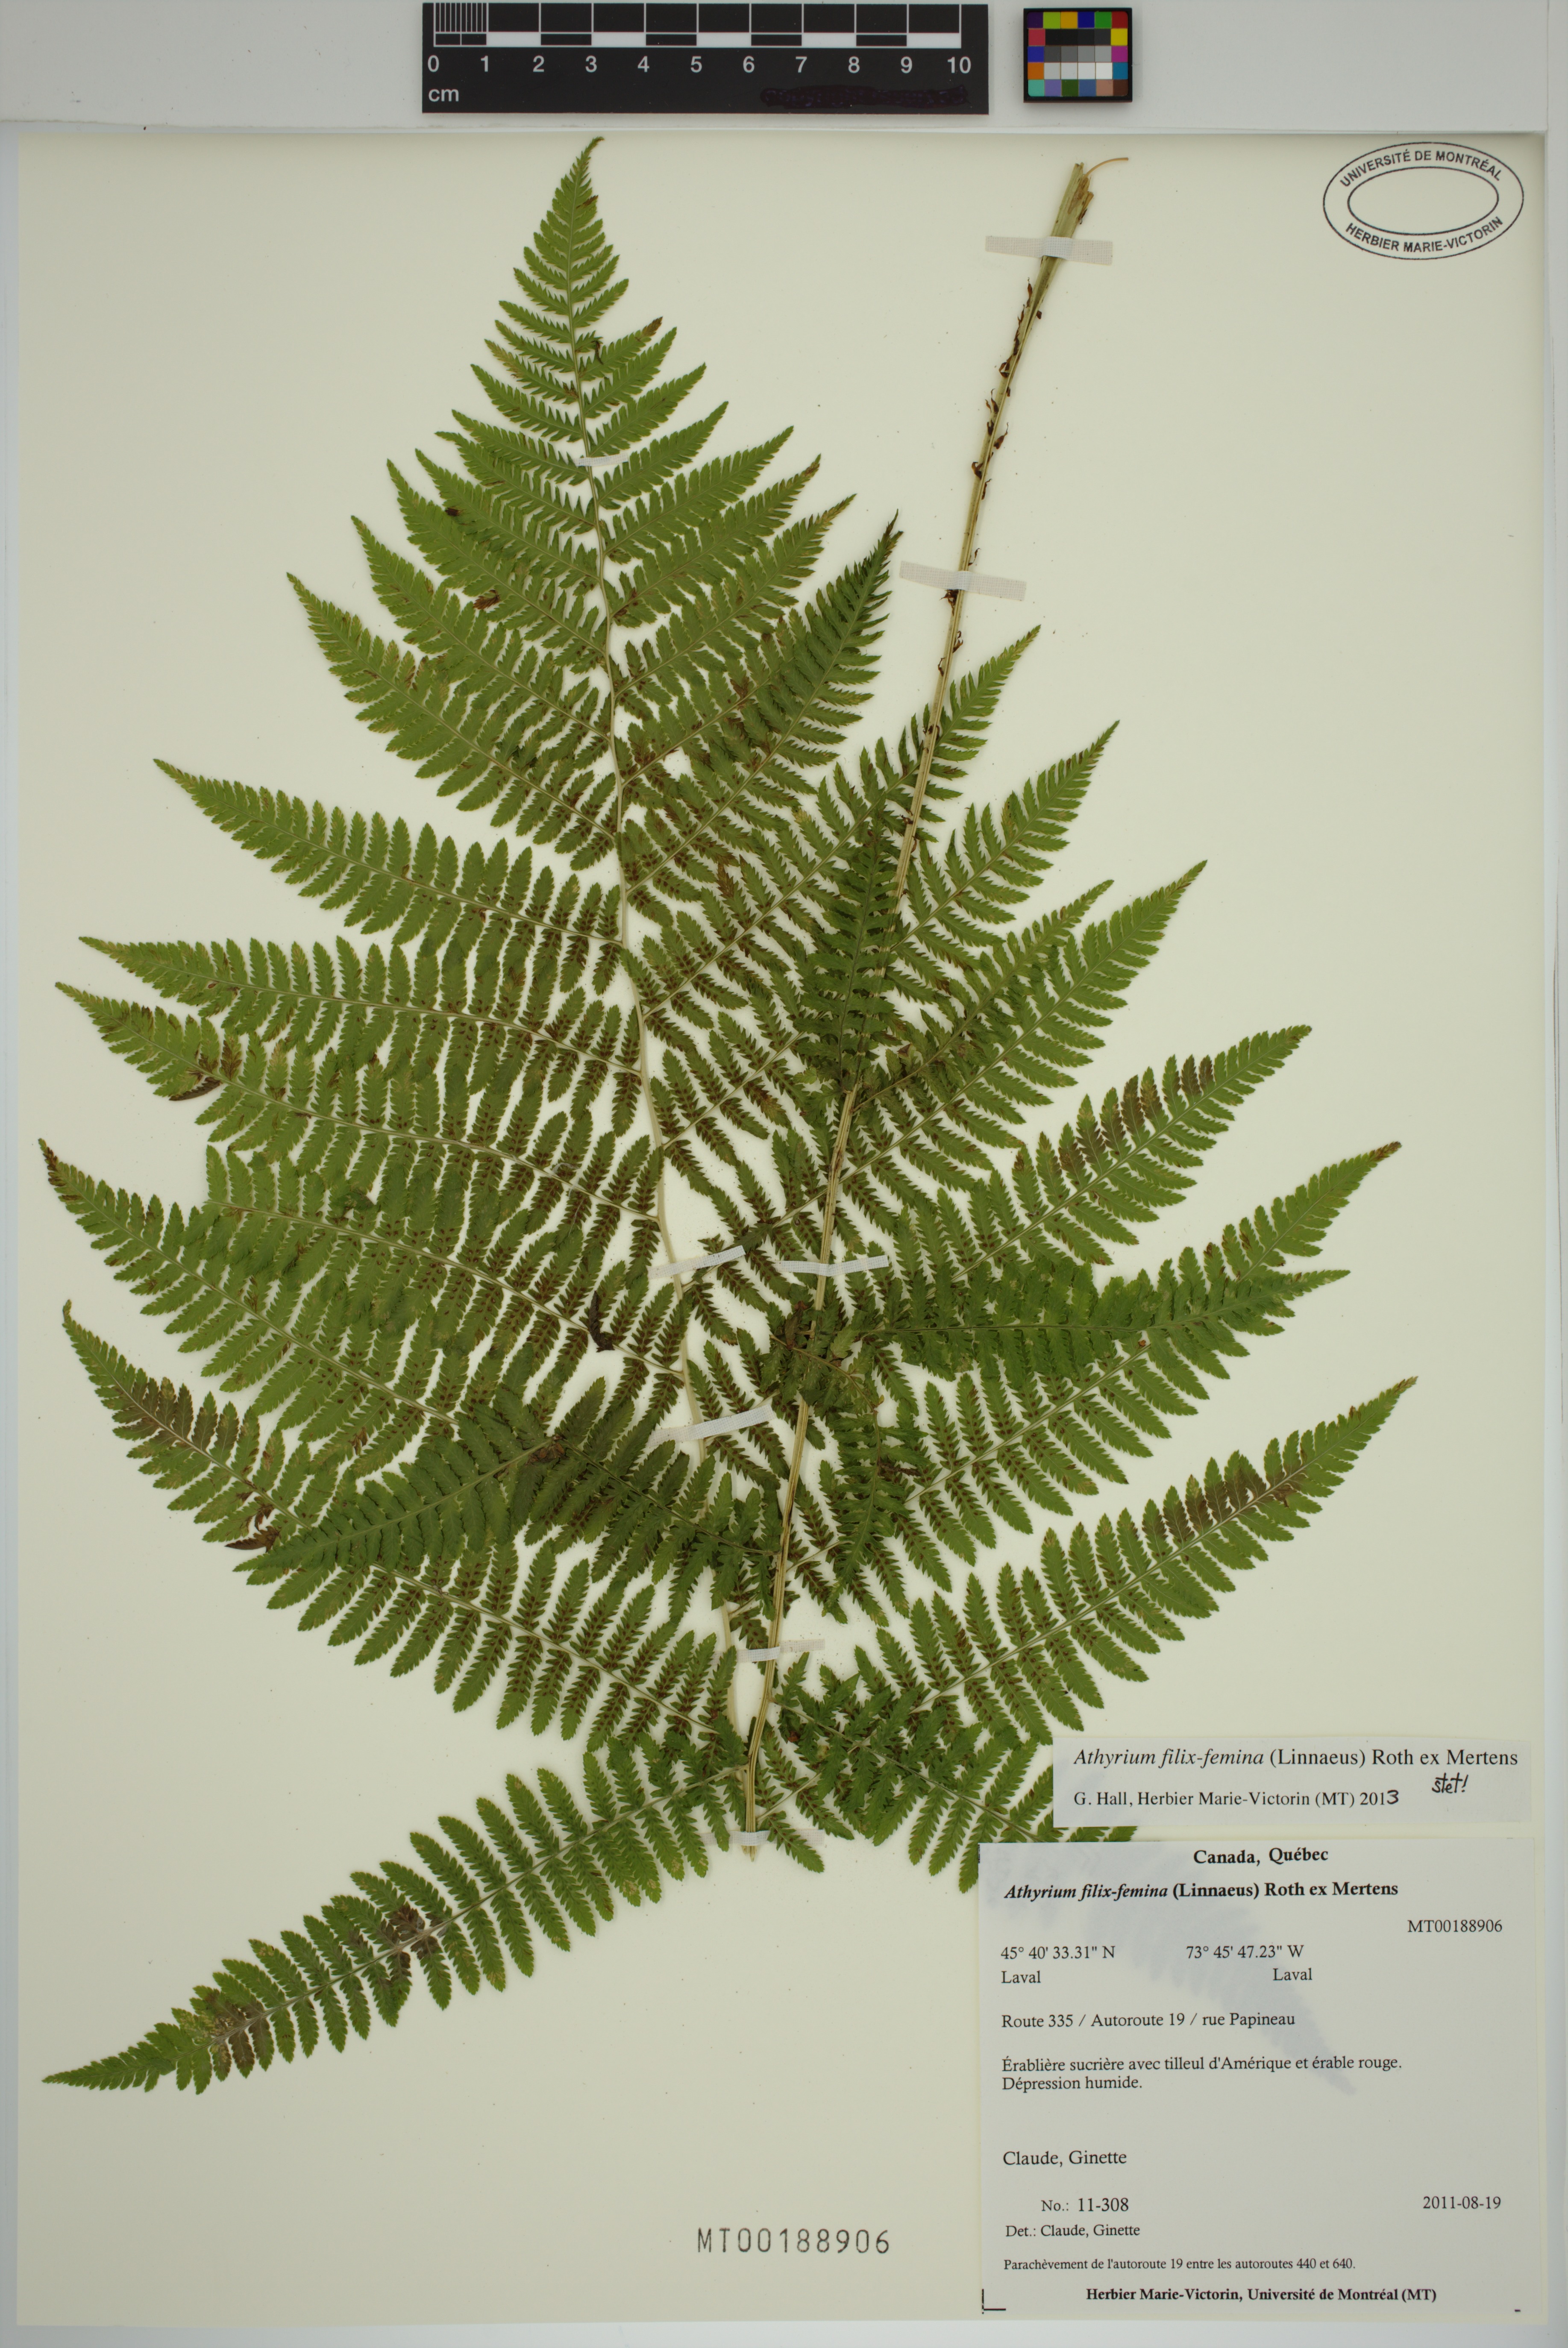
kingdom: Plantae
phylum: Tracheophyta
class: Polypodiopsida
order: Polypodiales
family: Athyriaceae
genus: Athyrium
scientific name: Athyrium filix-femina
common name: Lady fern
